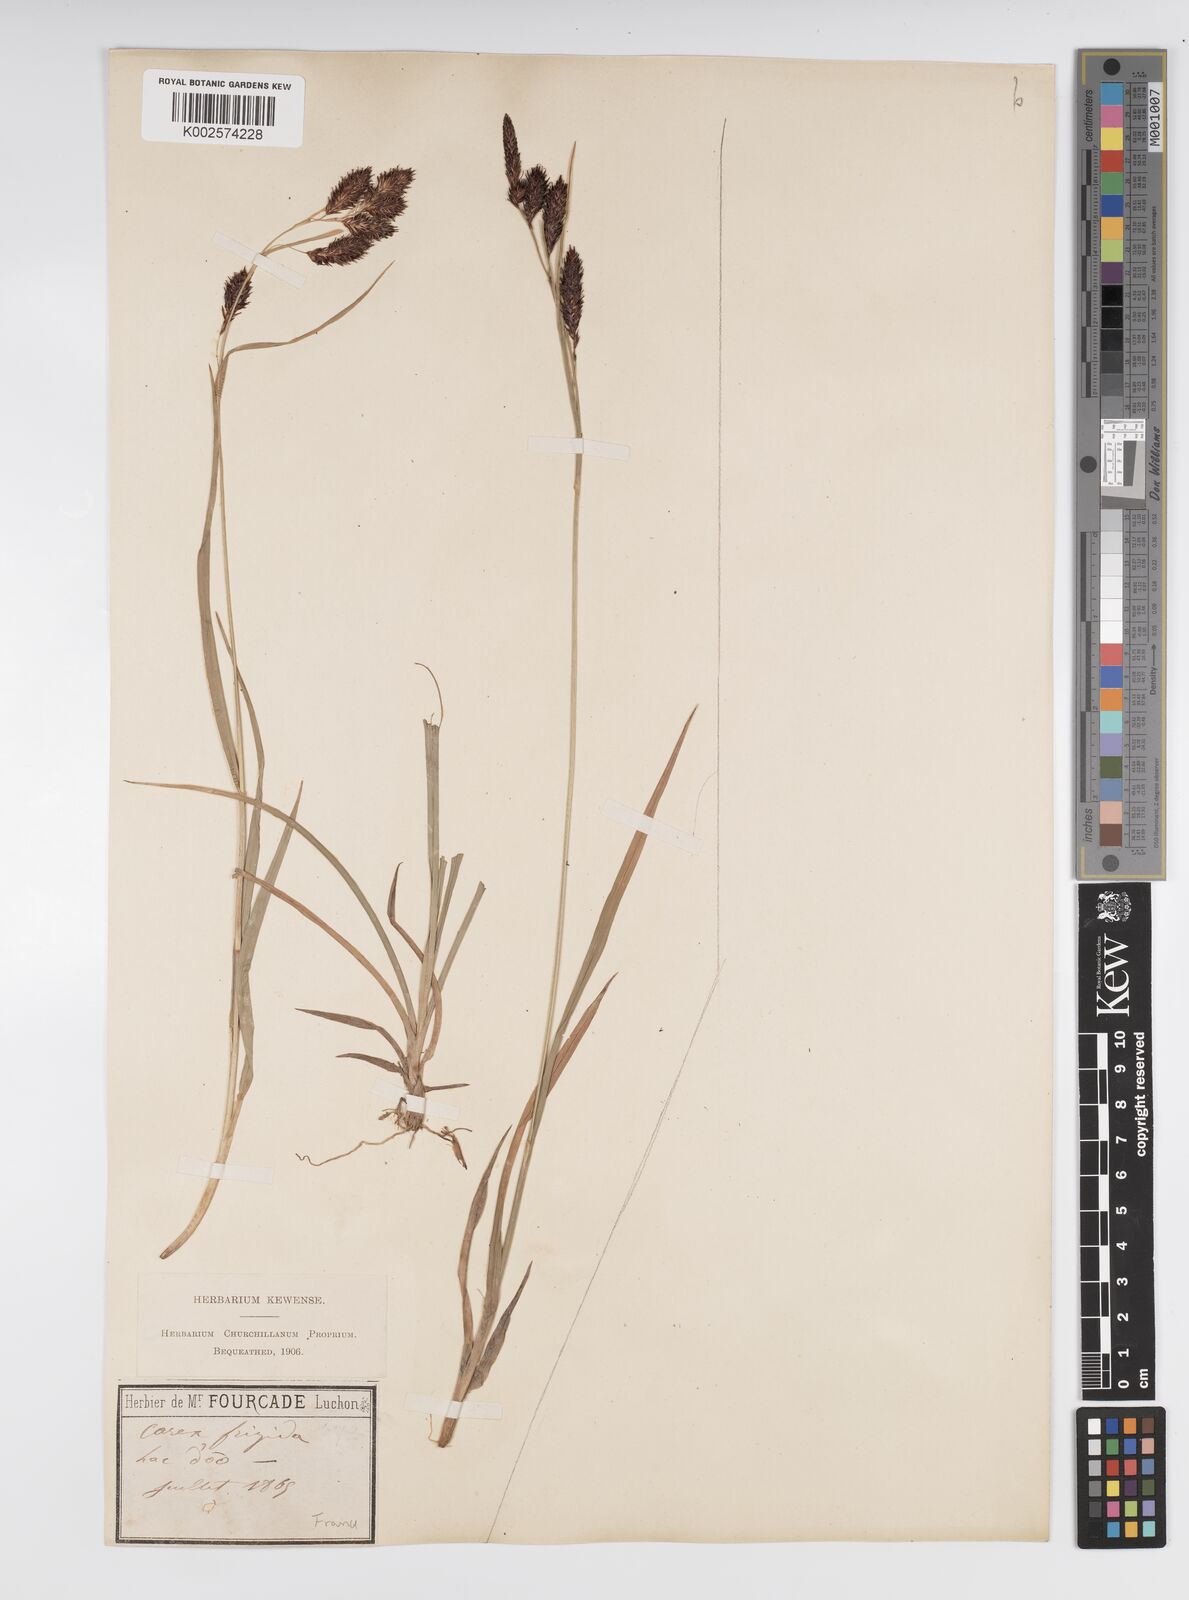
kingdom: Plantae
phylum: Tracheophyta
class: Liliopsida
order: Poales
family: Cyperaceae
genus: Carex
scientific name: Carex frigida
